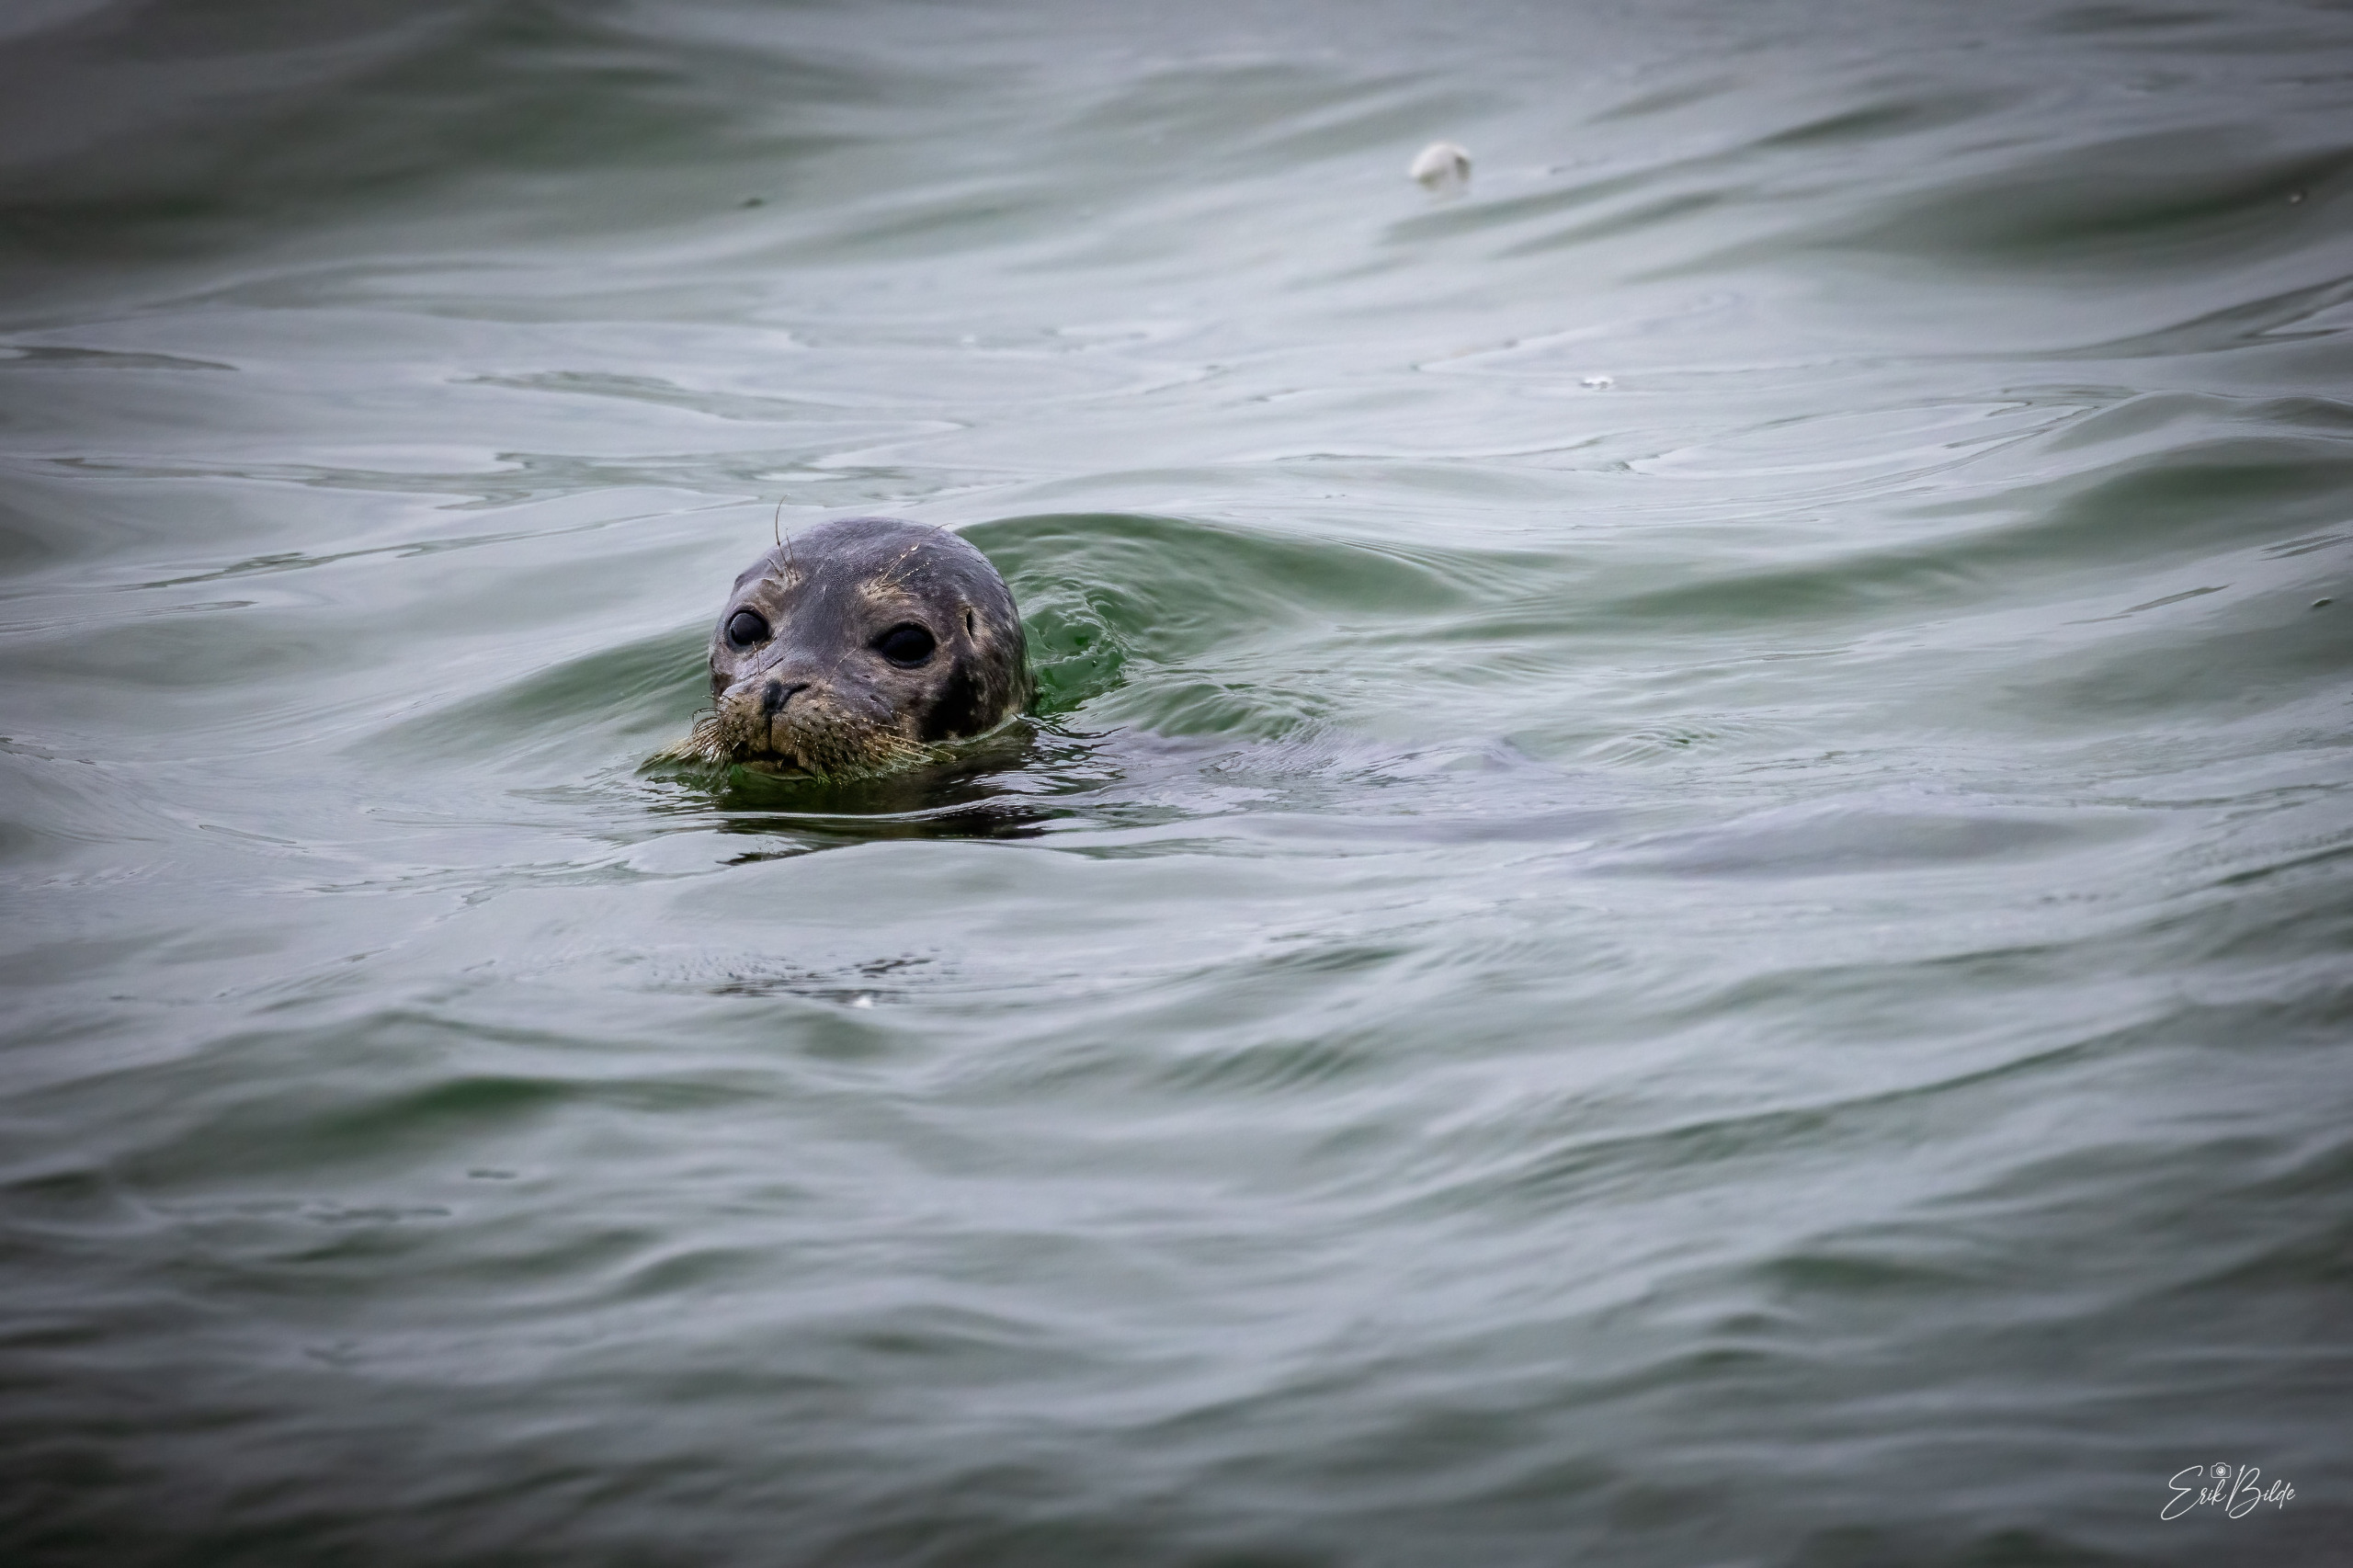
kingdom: Animalia
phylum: Chordata
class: Mammalia
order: Carnivora
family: Phocidae
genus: Phoca
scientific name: Phoca vitulina
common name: Spættet sæl
